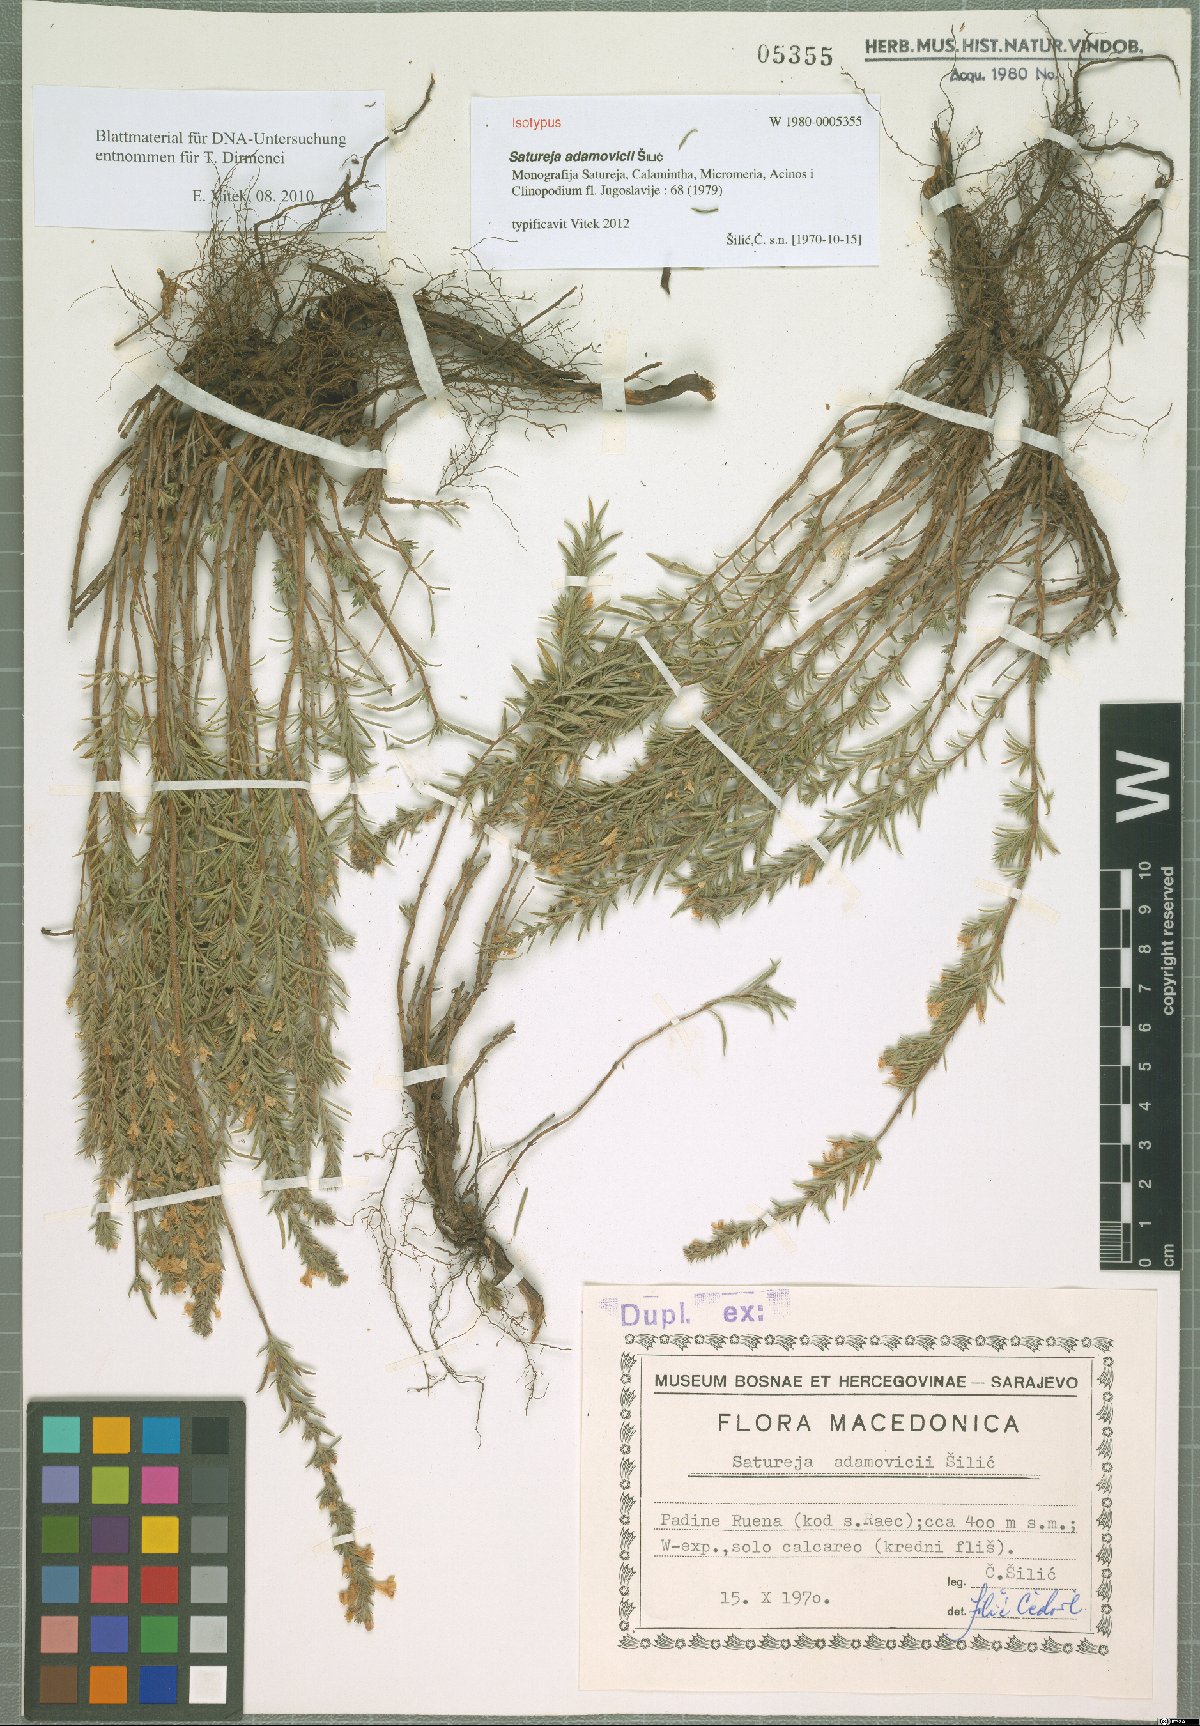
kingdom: Plantae
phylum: Tracheophyta
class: Magnoliopsida
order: Lamiales
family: Lamiaceae
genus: Satureja
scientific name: Satureja adamovicii
